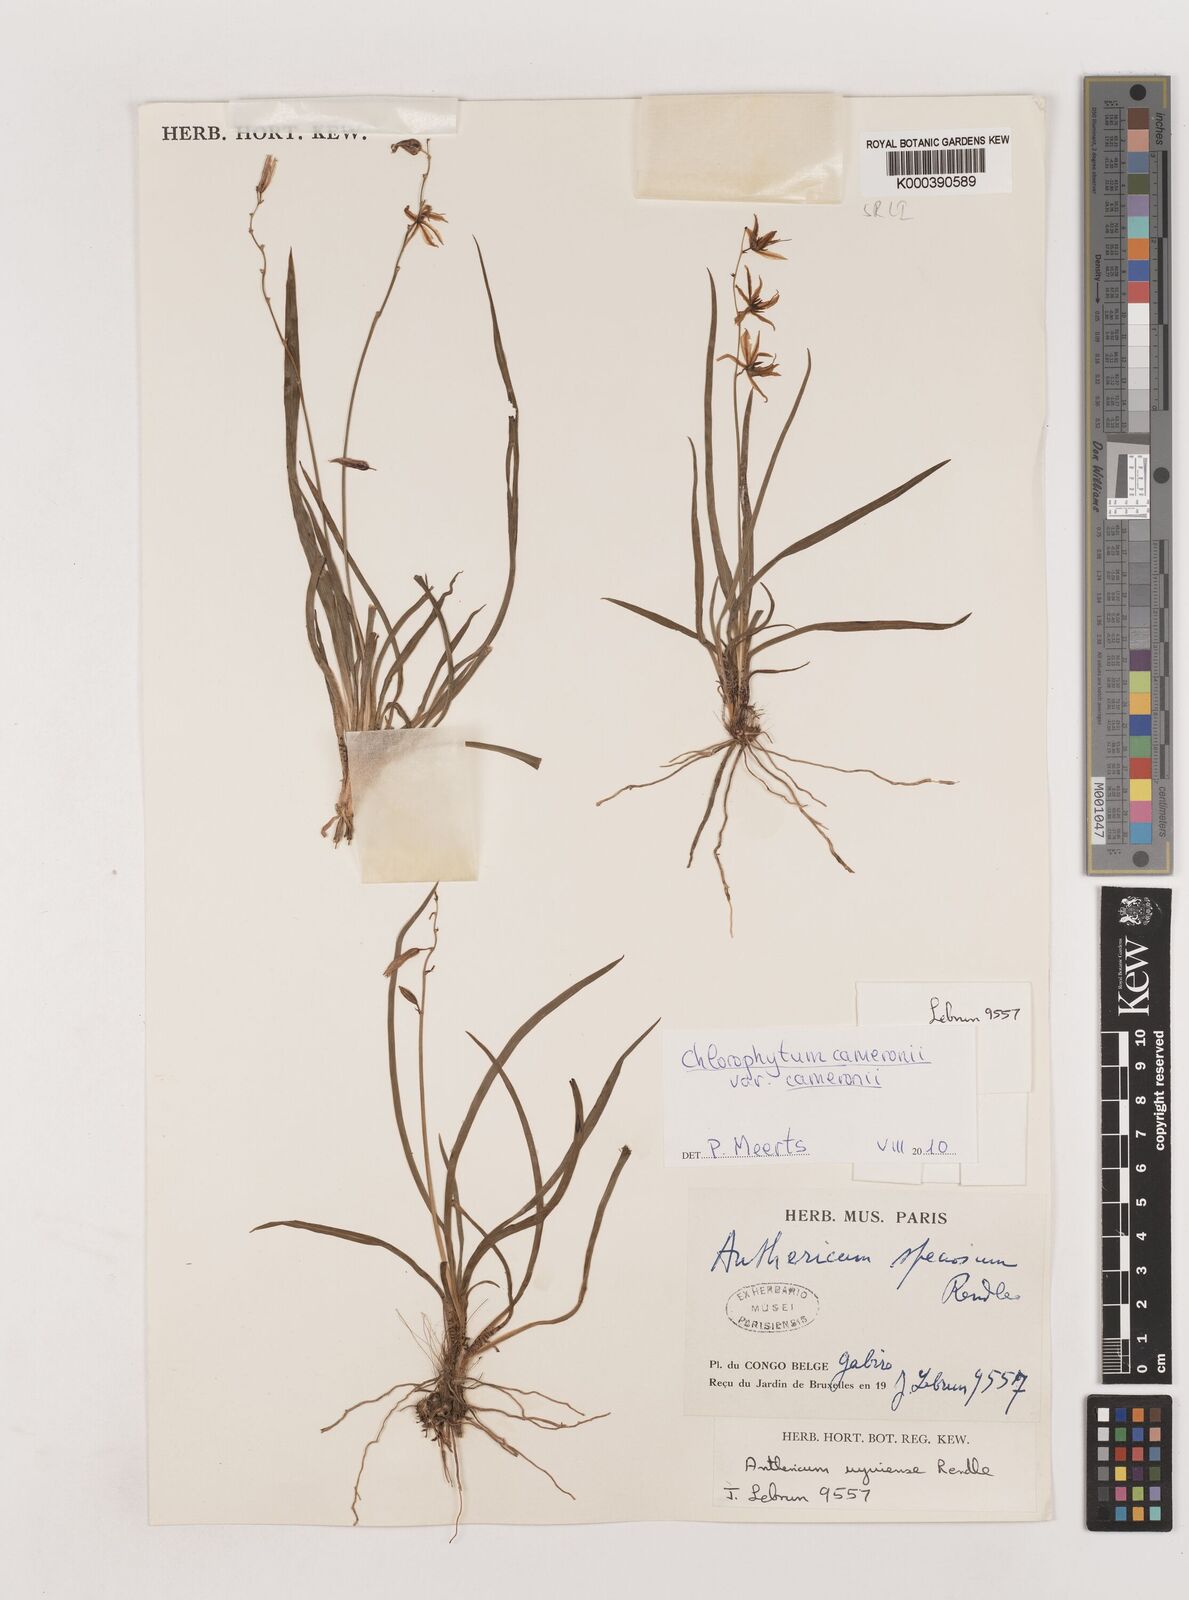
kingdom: Plantae
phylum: Tracheophyta
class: Liliopsida
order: Asparagales
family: Asparagaceae
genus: Chlorophytum
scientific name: Chlorophytum cameronii
